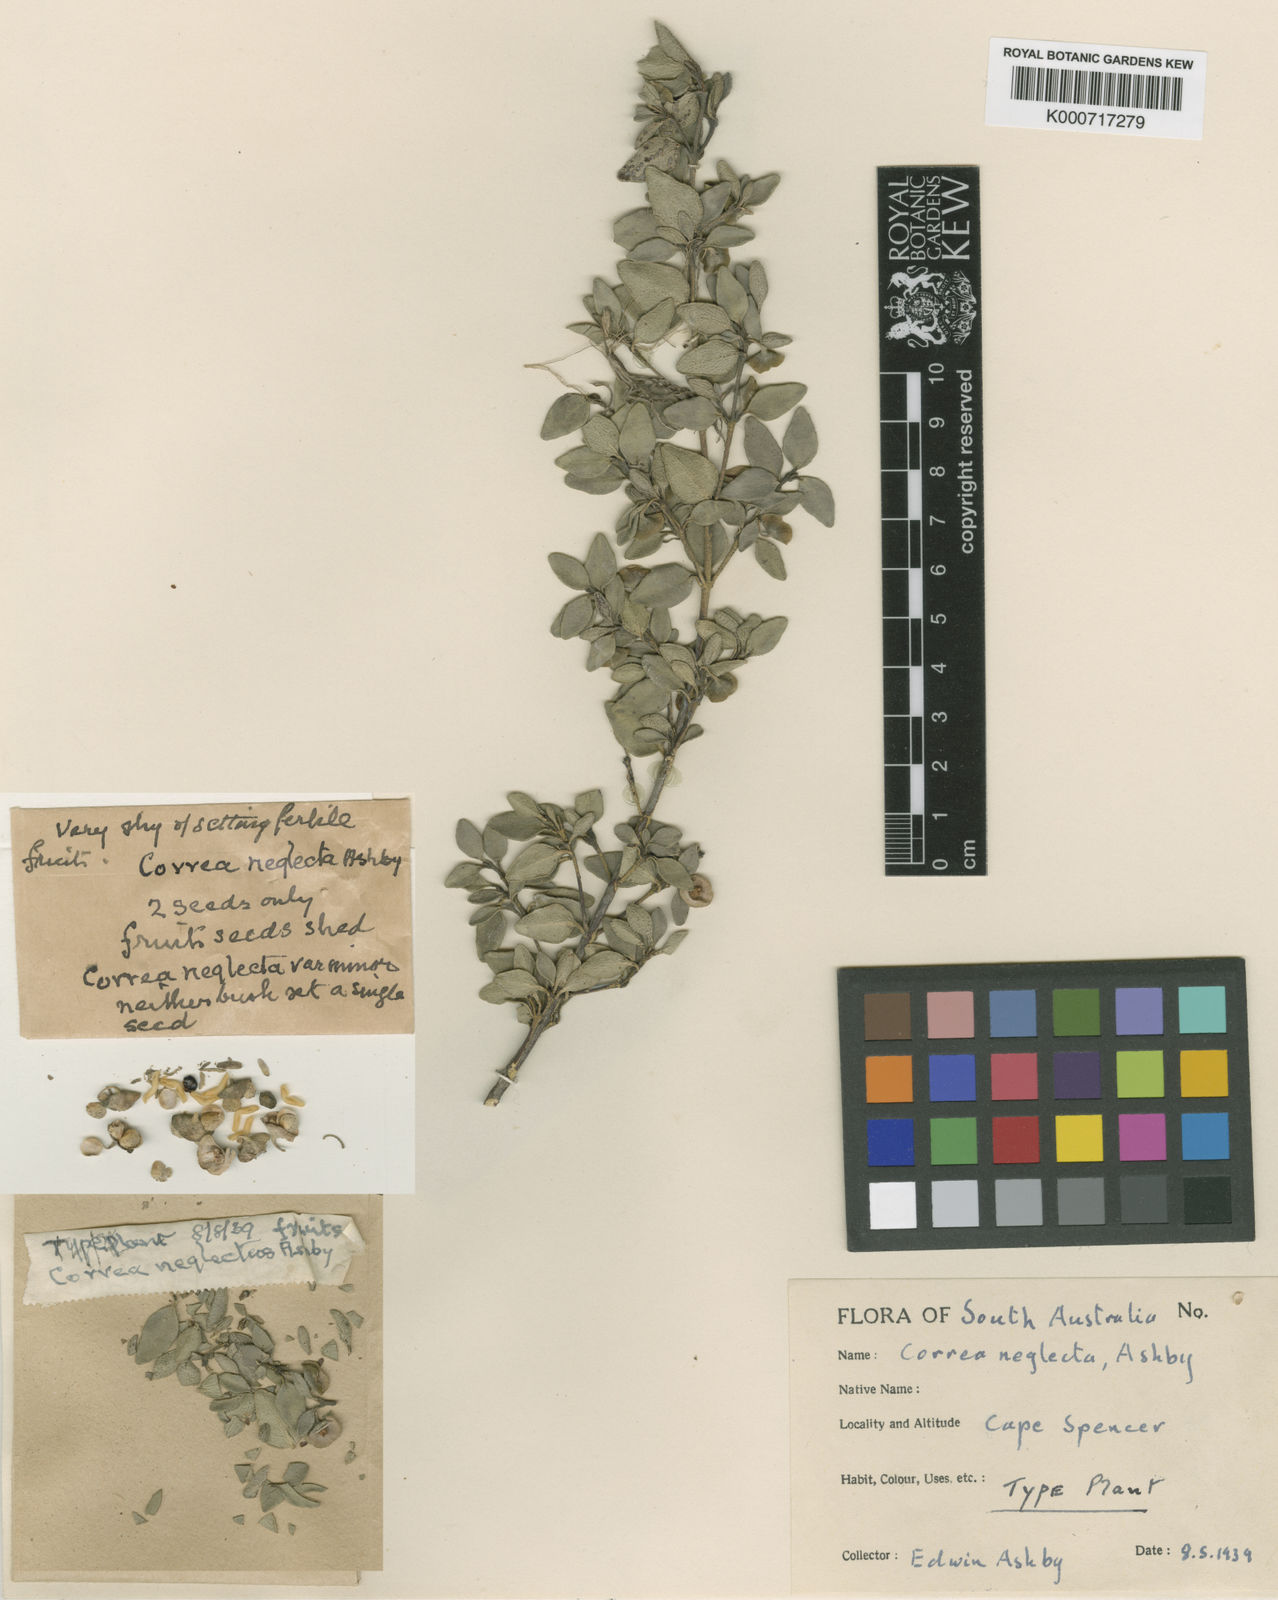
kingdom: Plantae
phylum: Tracheophyta
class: Magnoliopsida
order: Sapindales
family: Rutaceae
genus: Correa
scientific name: Correa pulchella
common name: Salmon correa
